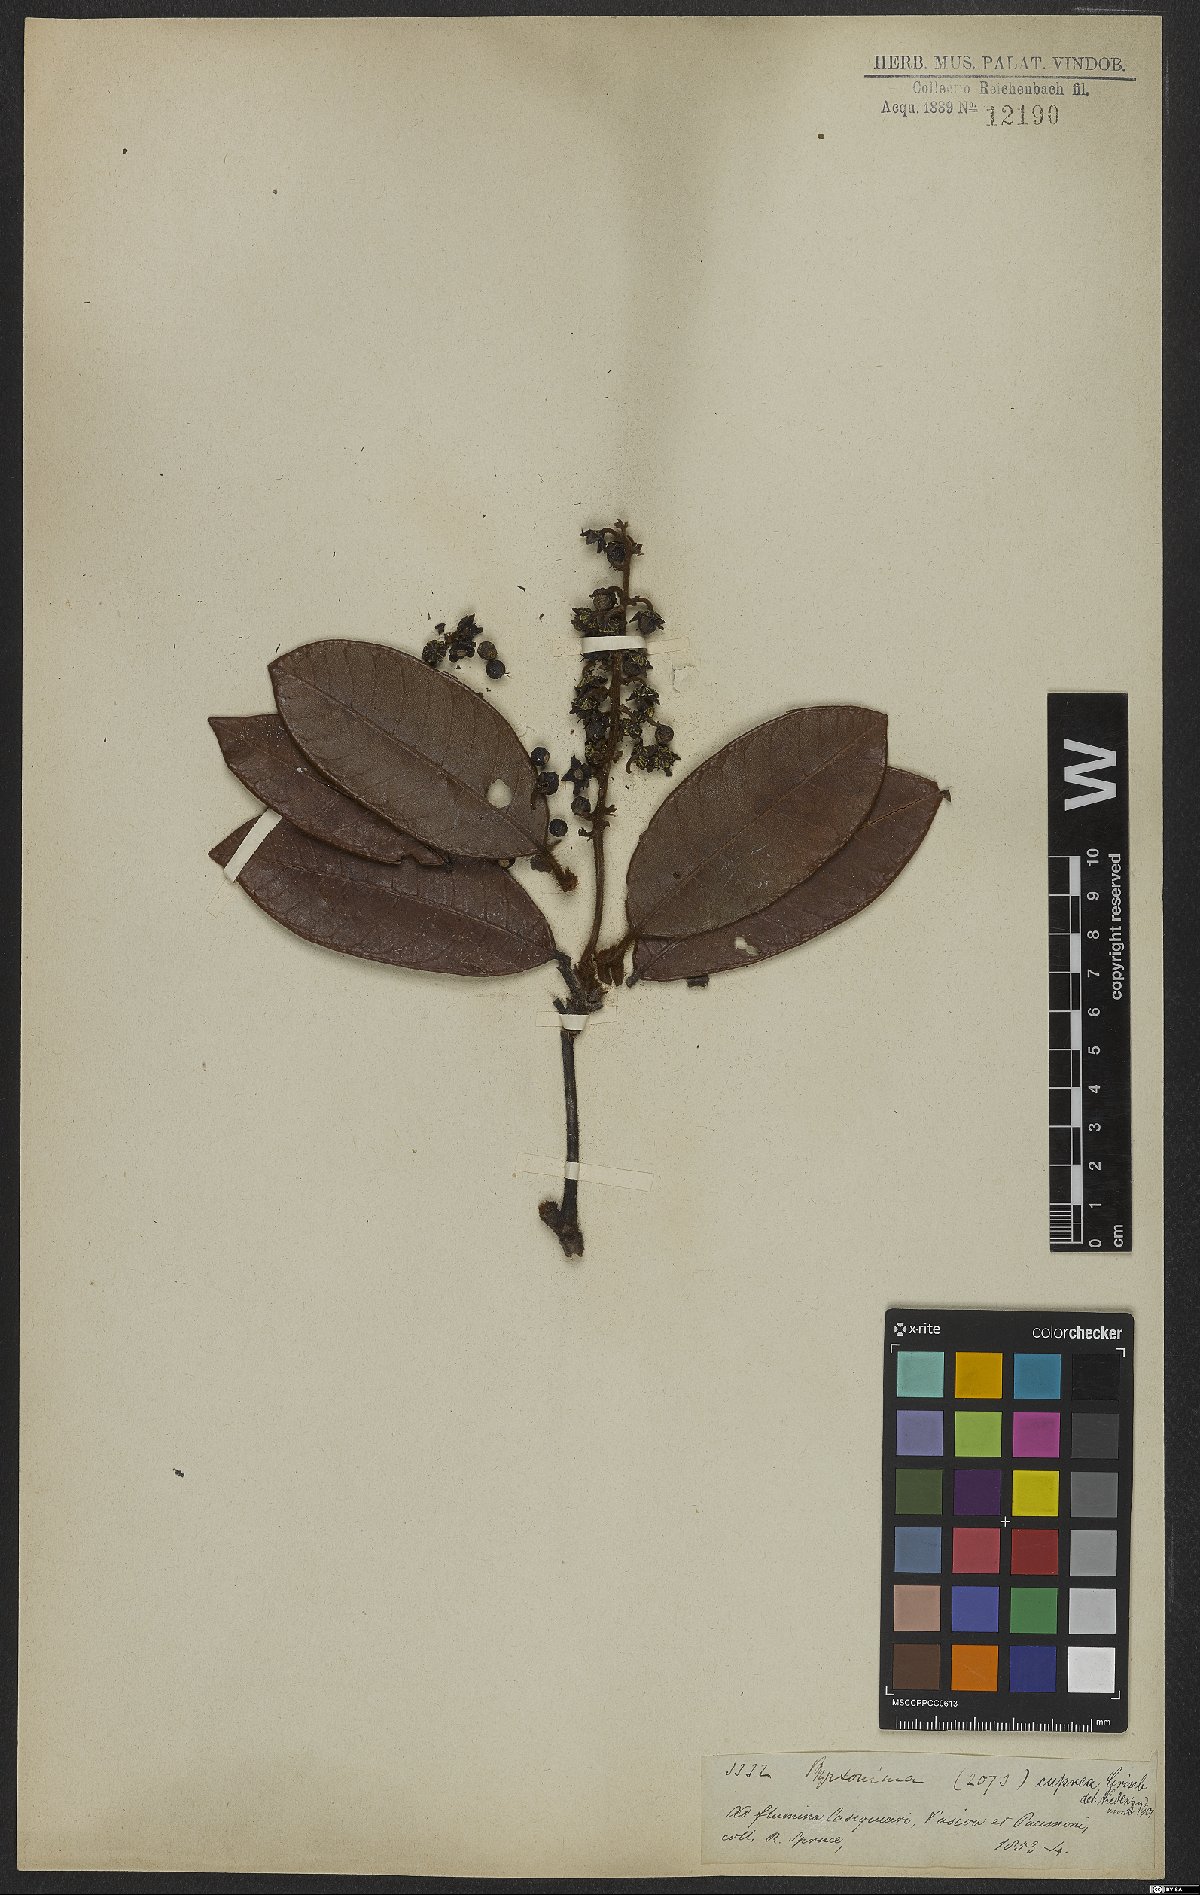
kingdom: Plantae
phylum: Tracheophyta
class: Magnoliopsida
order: Malpighiales
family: Malpighiaceae
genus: Byrsonima
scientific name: Byrsonima cuprea
